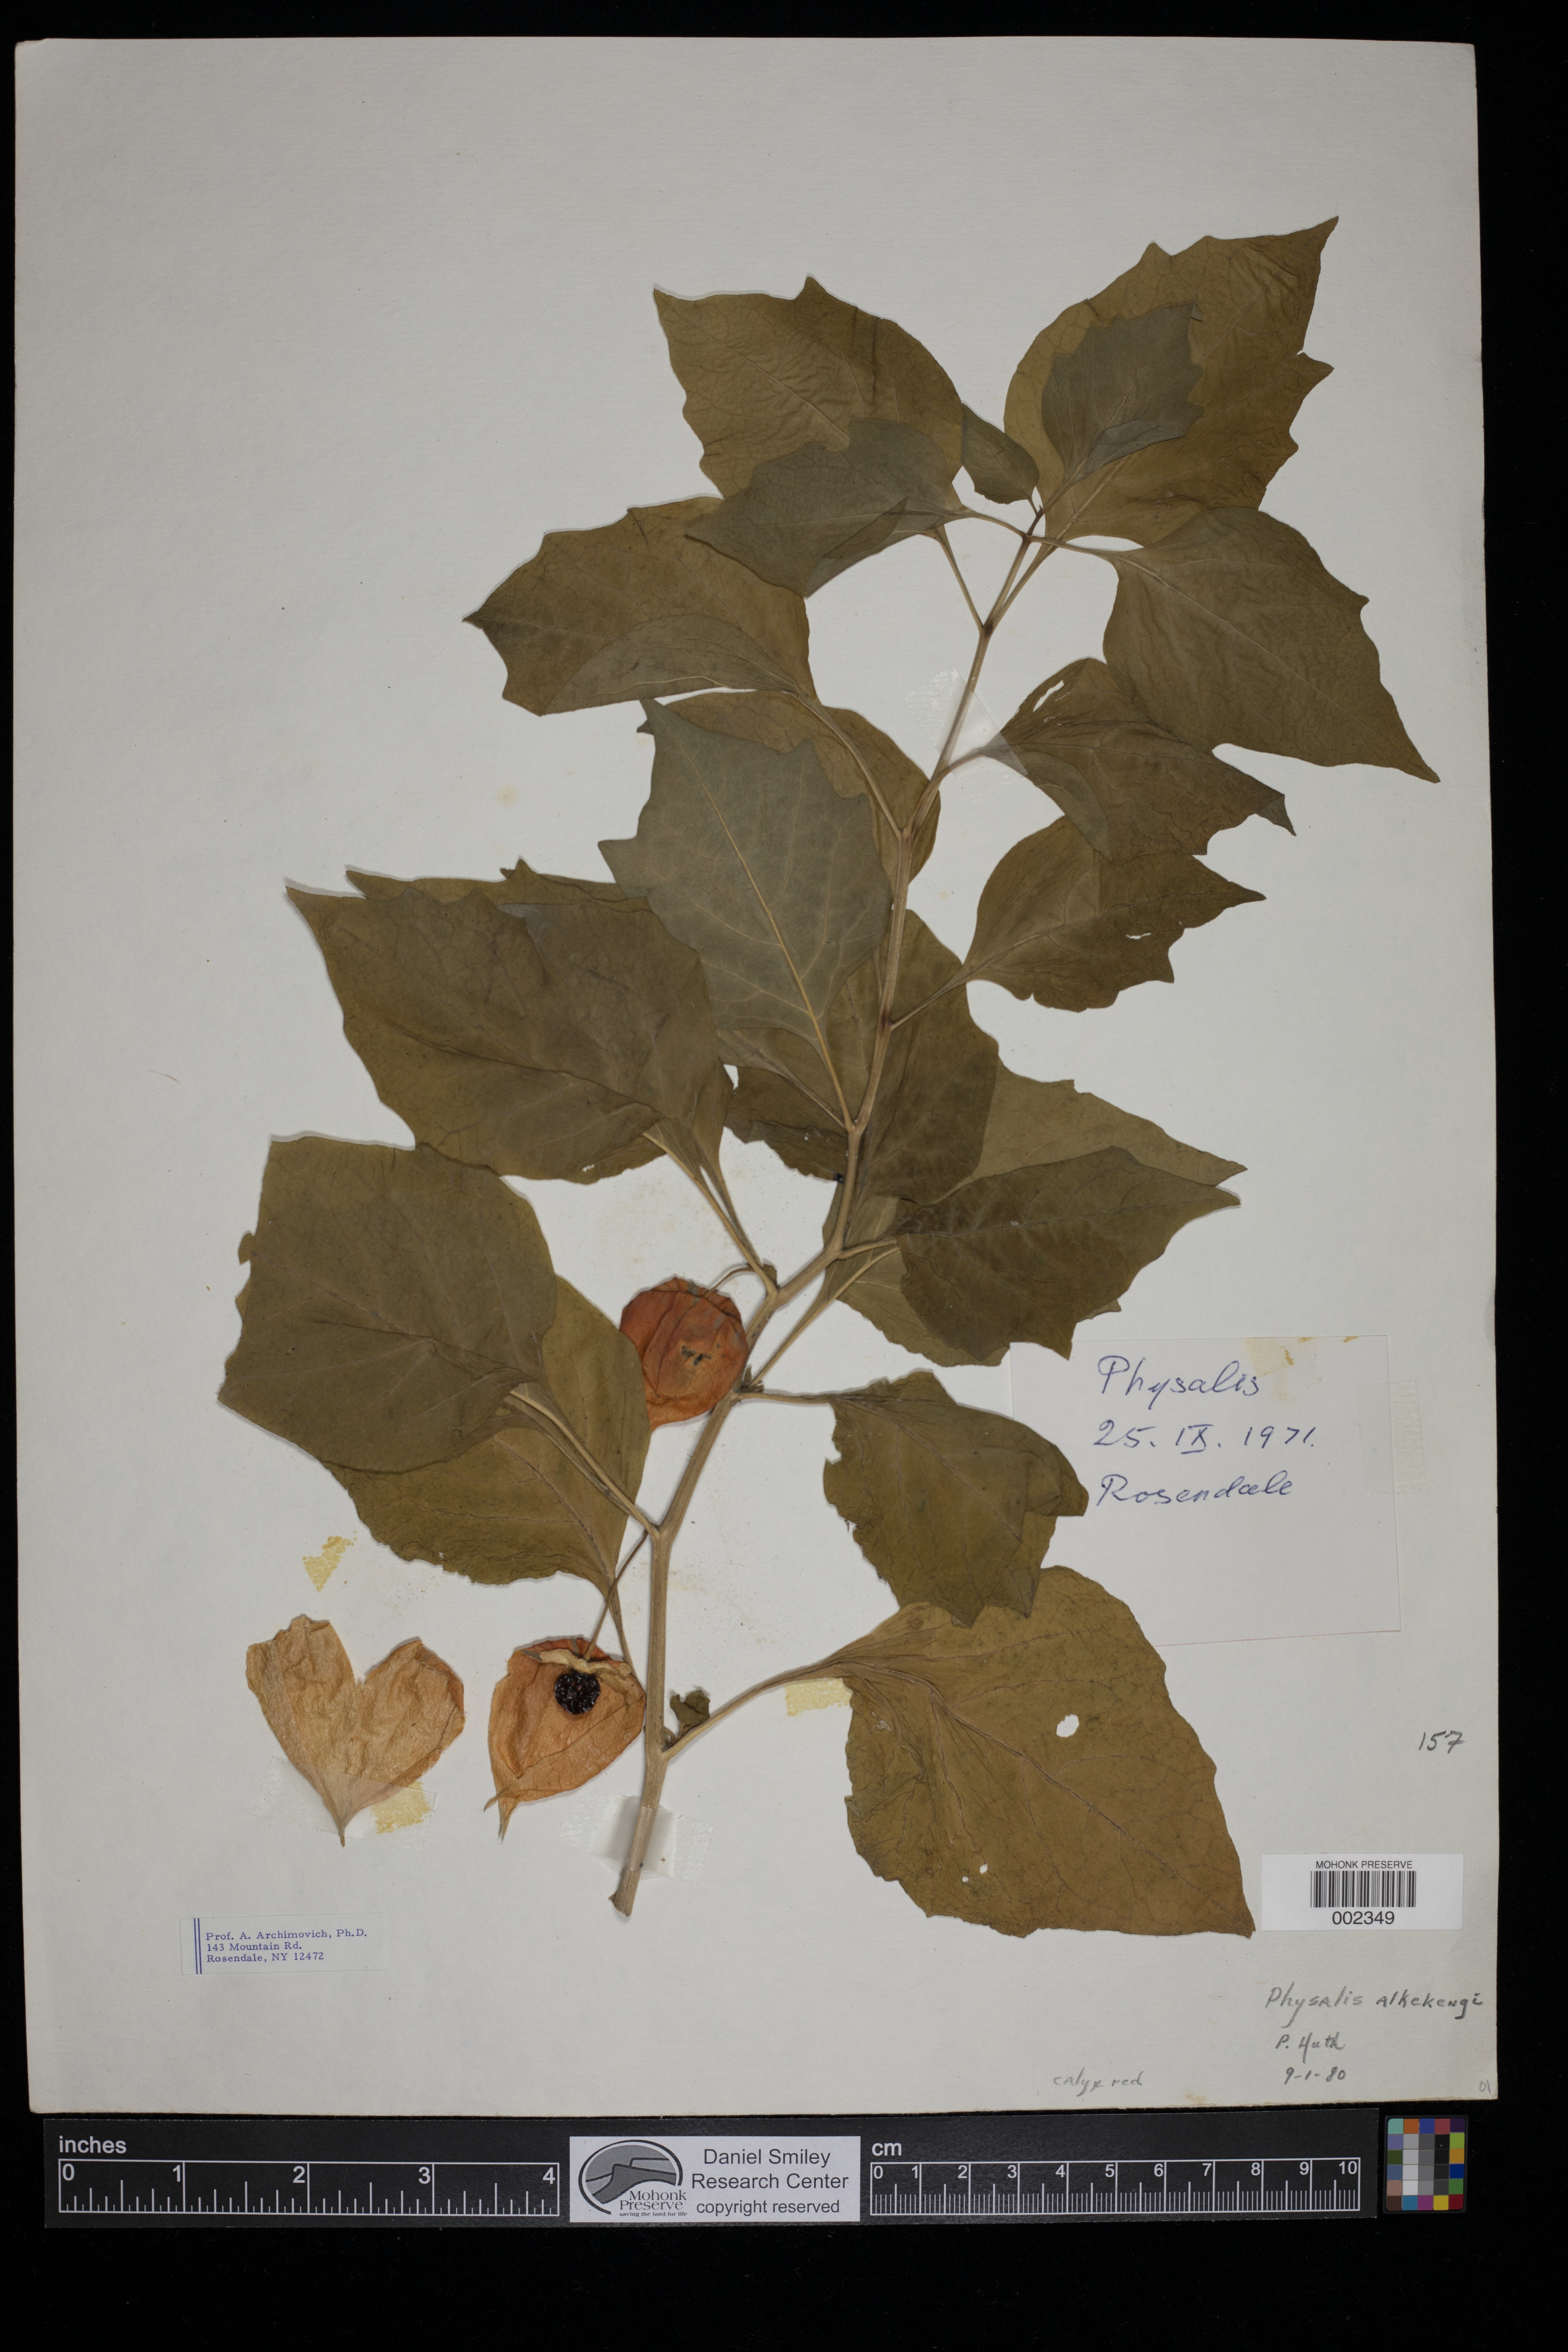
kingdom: Plantae
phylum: Tracheophyta
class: Magnoliopsida
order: Solanales
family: Solanaceae
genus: Alkekengi
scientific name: Alkekengi officinarum
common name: Japanese-lantern
